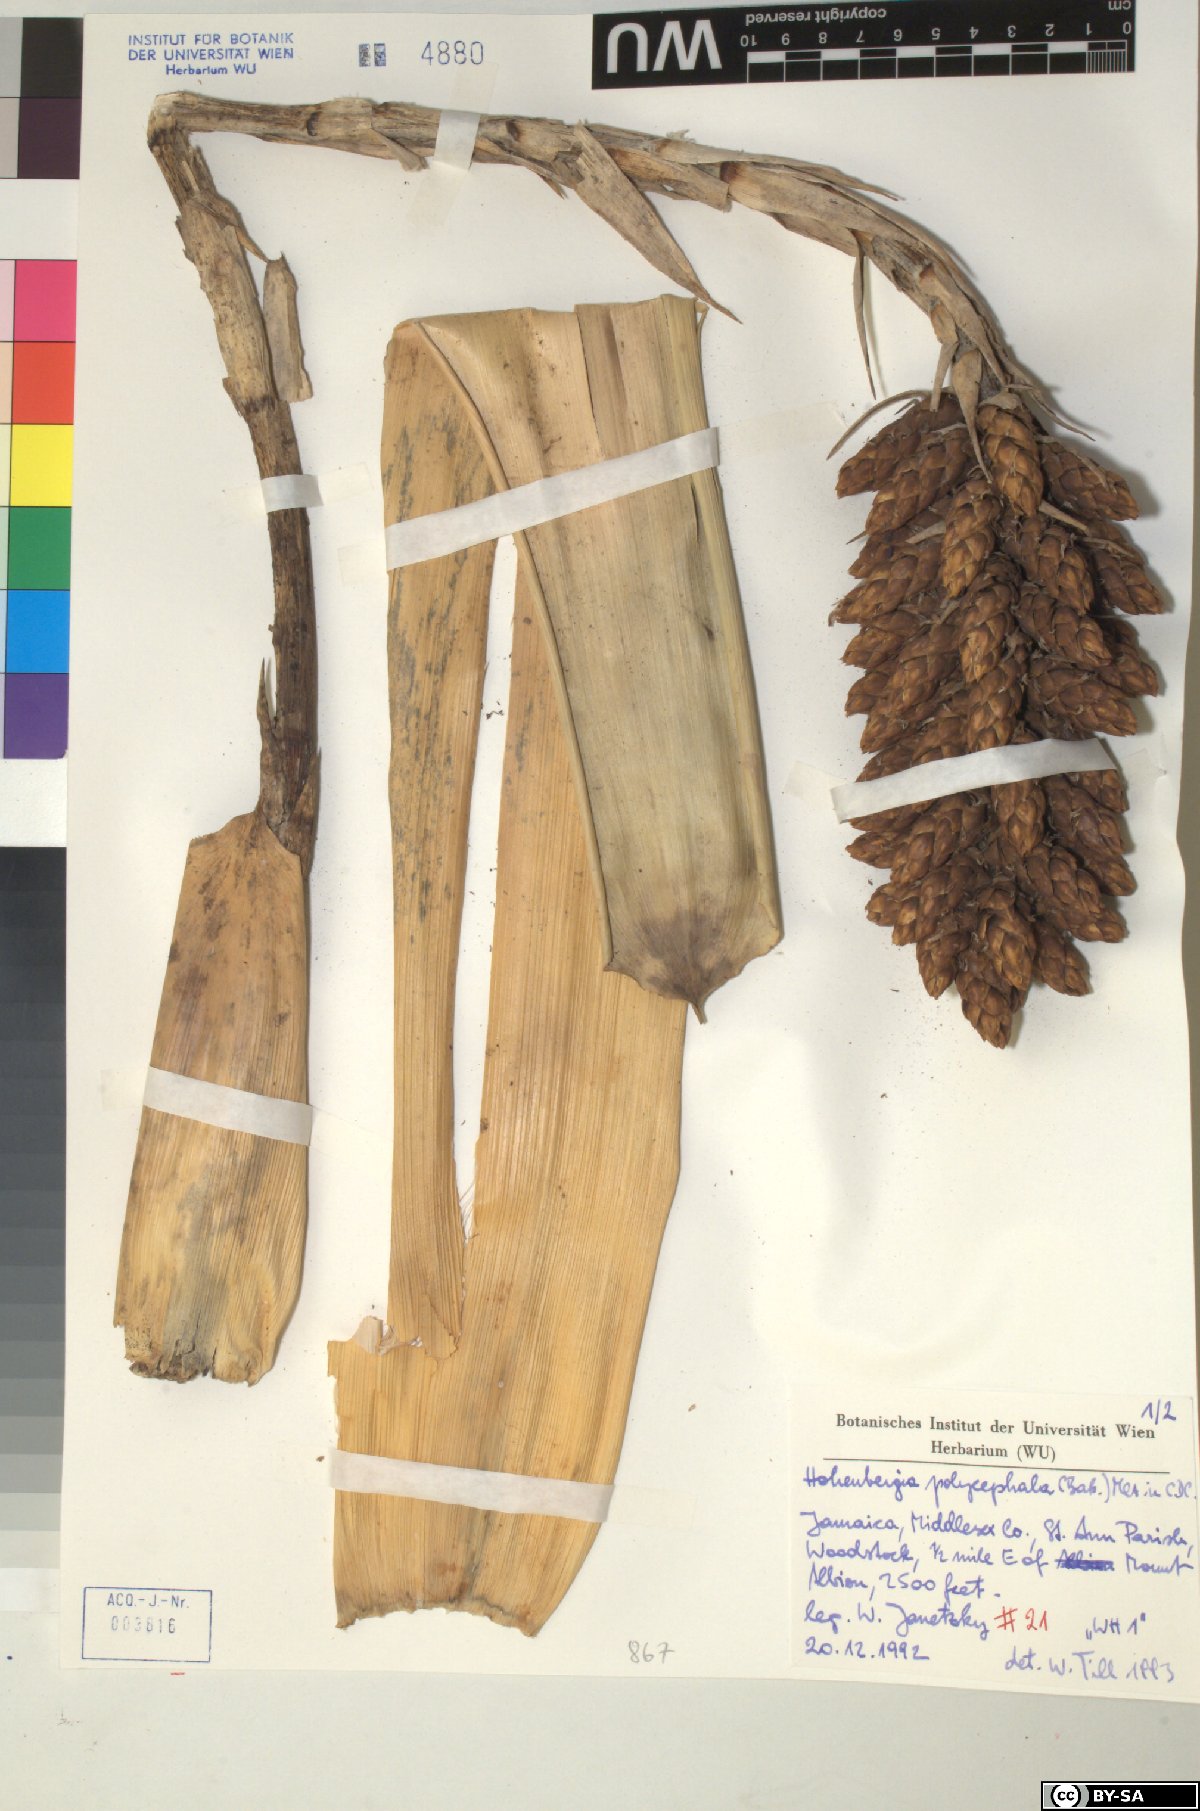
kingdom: Plantae
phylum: Tracheophyta
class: Liliopsida
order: Poales
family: Bromeliaceae
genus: Wittmackia
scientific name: Wittmackia polycephala
